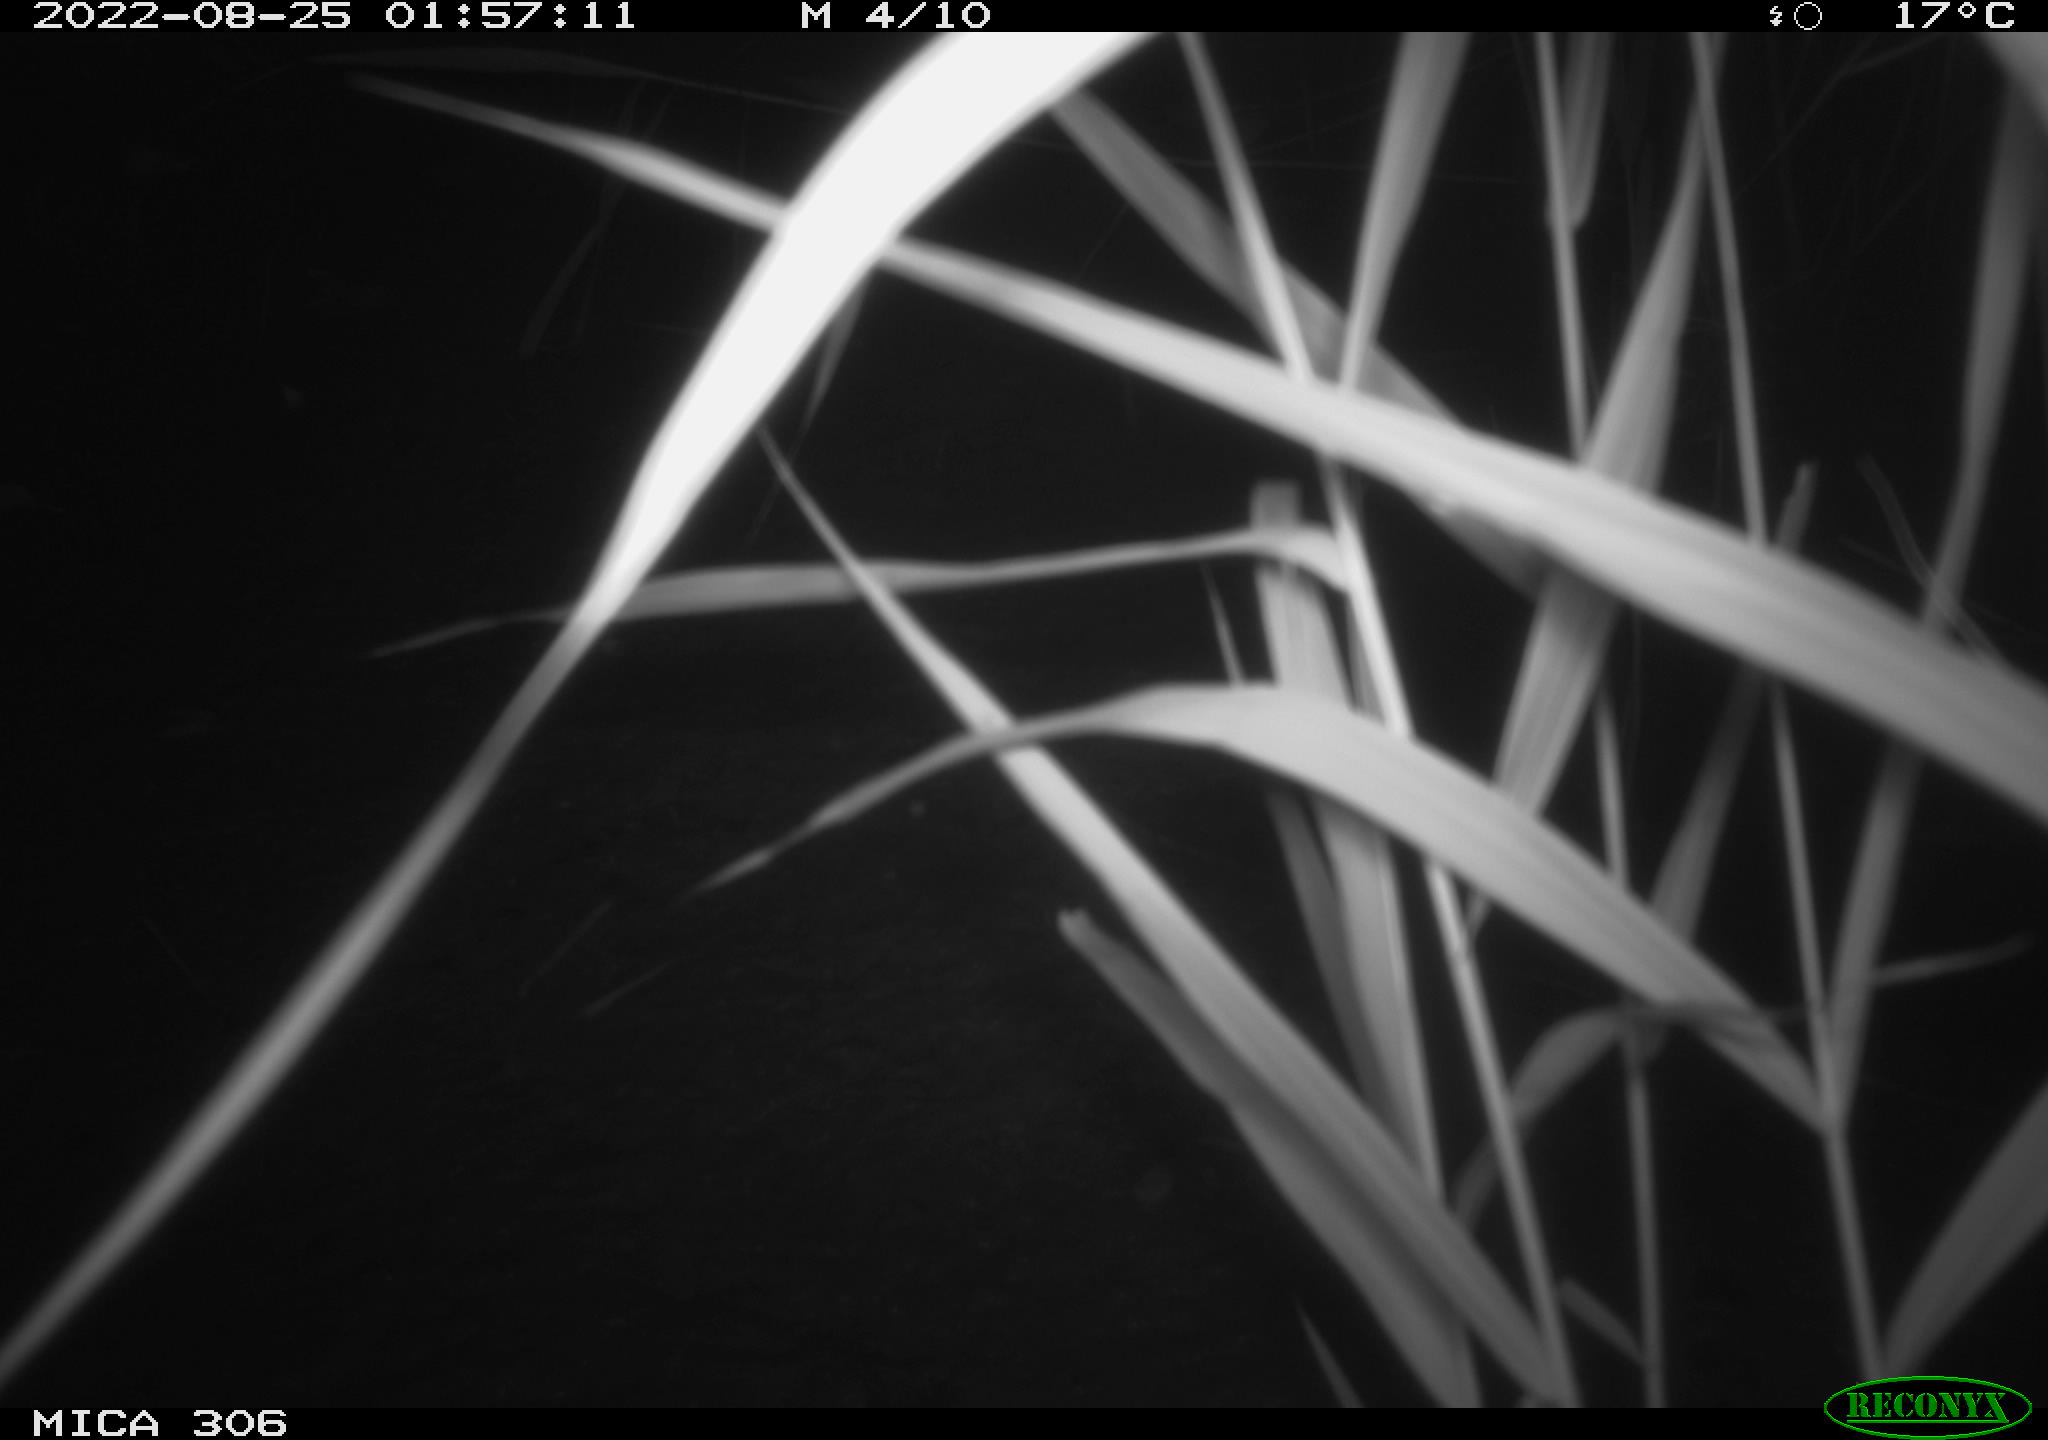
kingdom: Animalia
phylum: Chordata
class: Mammalia
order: Rodentia
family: Muridae
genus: Rattus
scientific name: Rattus norvegicus
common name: Brown rat
